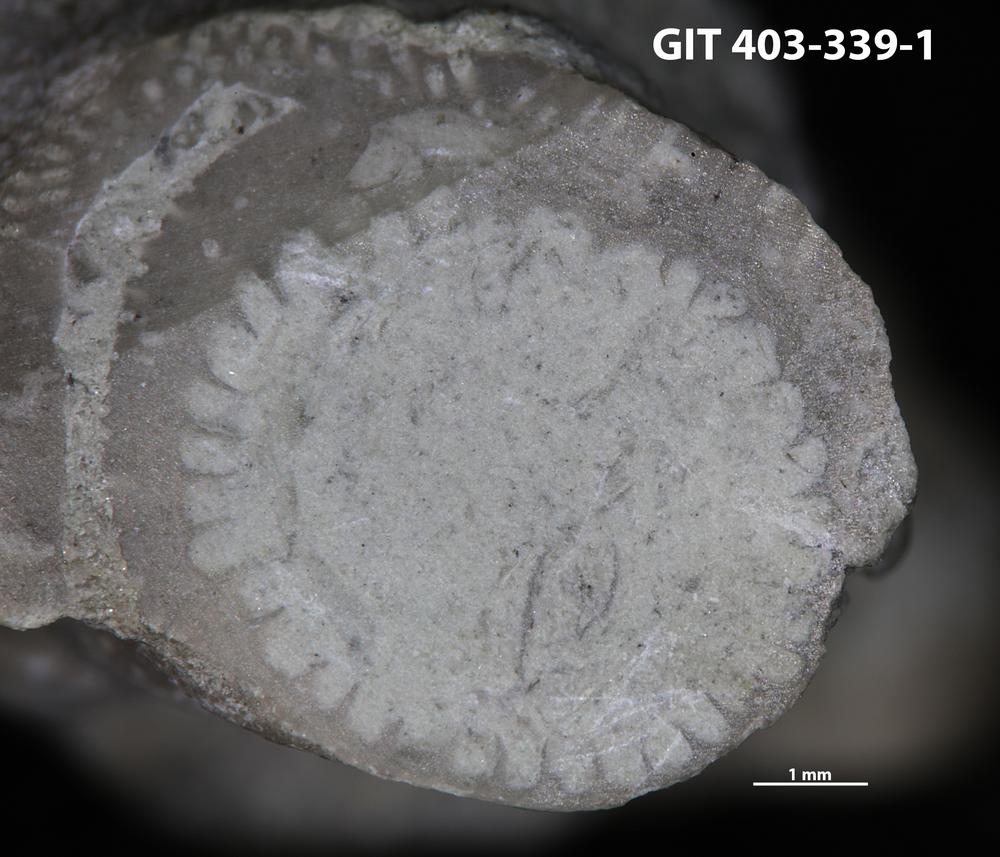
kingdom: Animalia
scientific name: Animalia
